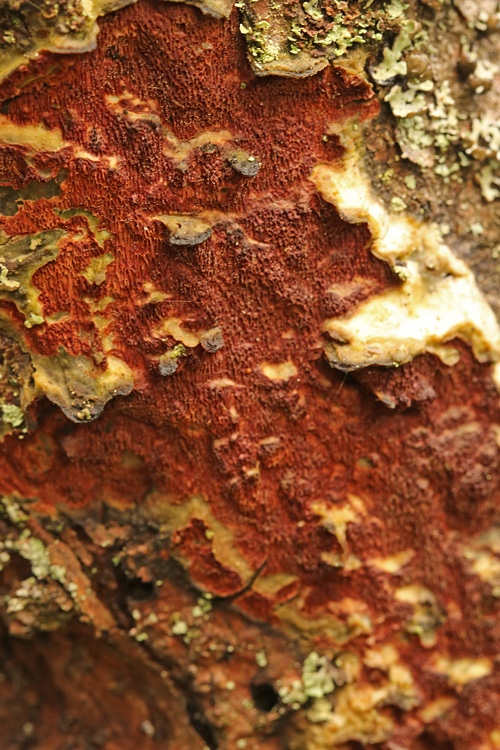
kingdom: Fungi
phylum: Basidiomycota
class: Agaricomycetes
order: Polyporales
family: Irpicaceae
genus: Meruliopsis
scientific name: Meruliopsis taxicola
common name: purpurbrun foldporesvamp
